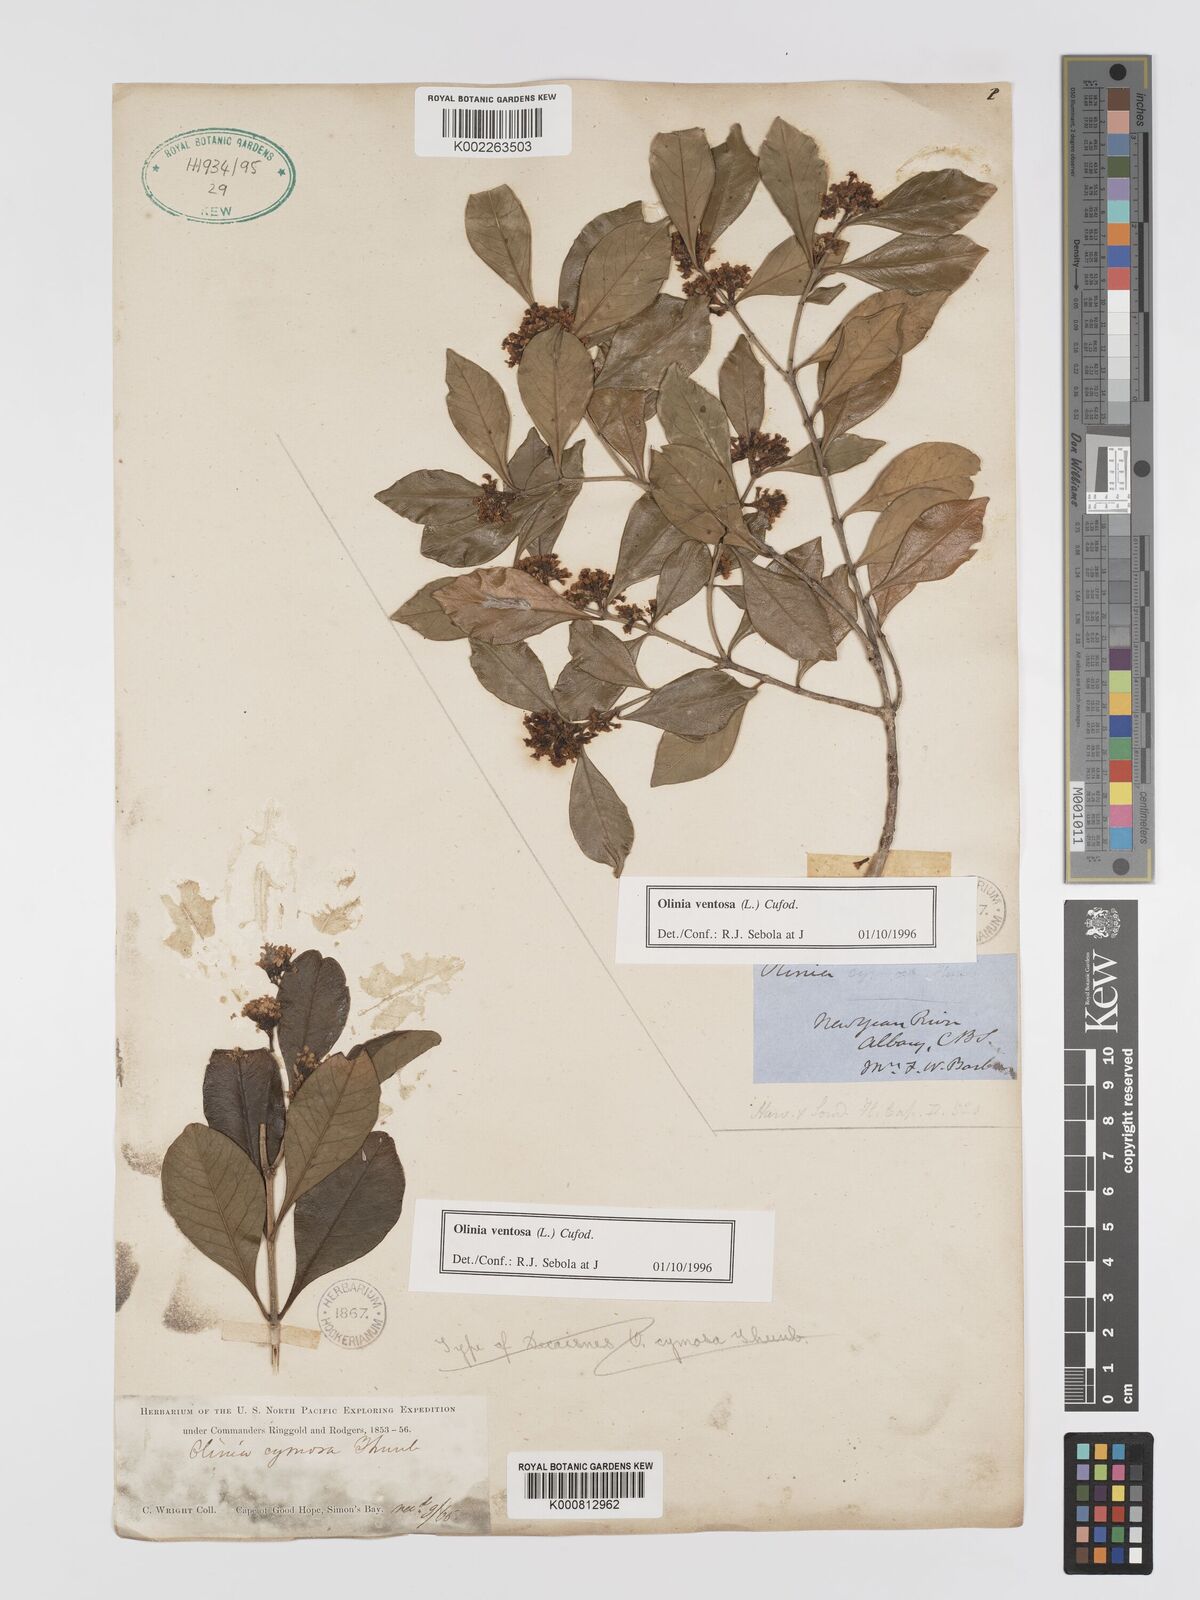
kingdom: Plantae
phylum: Tracheophyta
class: Magnoliopsida
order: Myrtales
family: Penaeaceae
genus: Olinia
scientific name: Olinia ventosa
